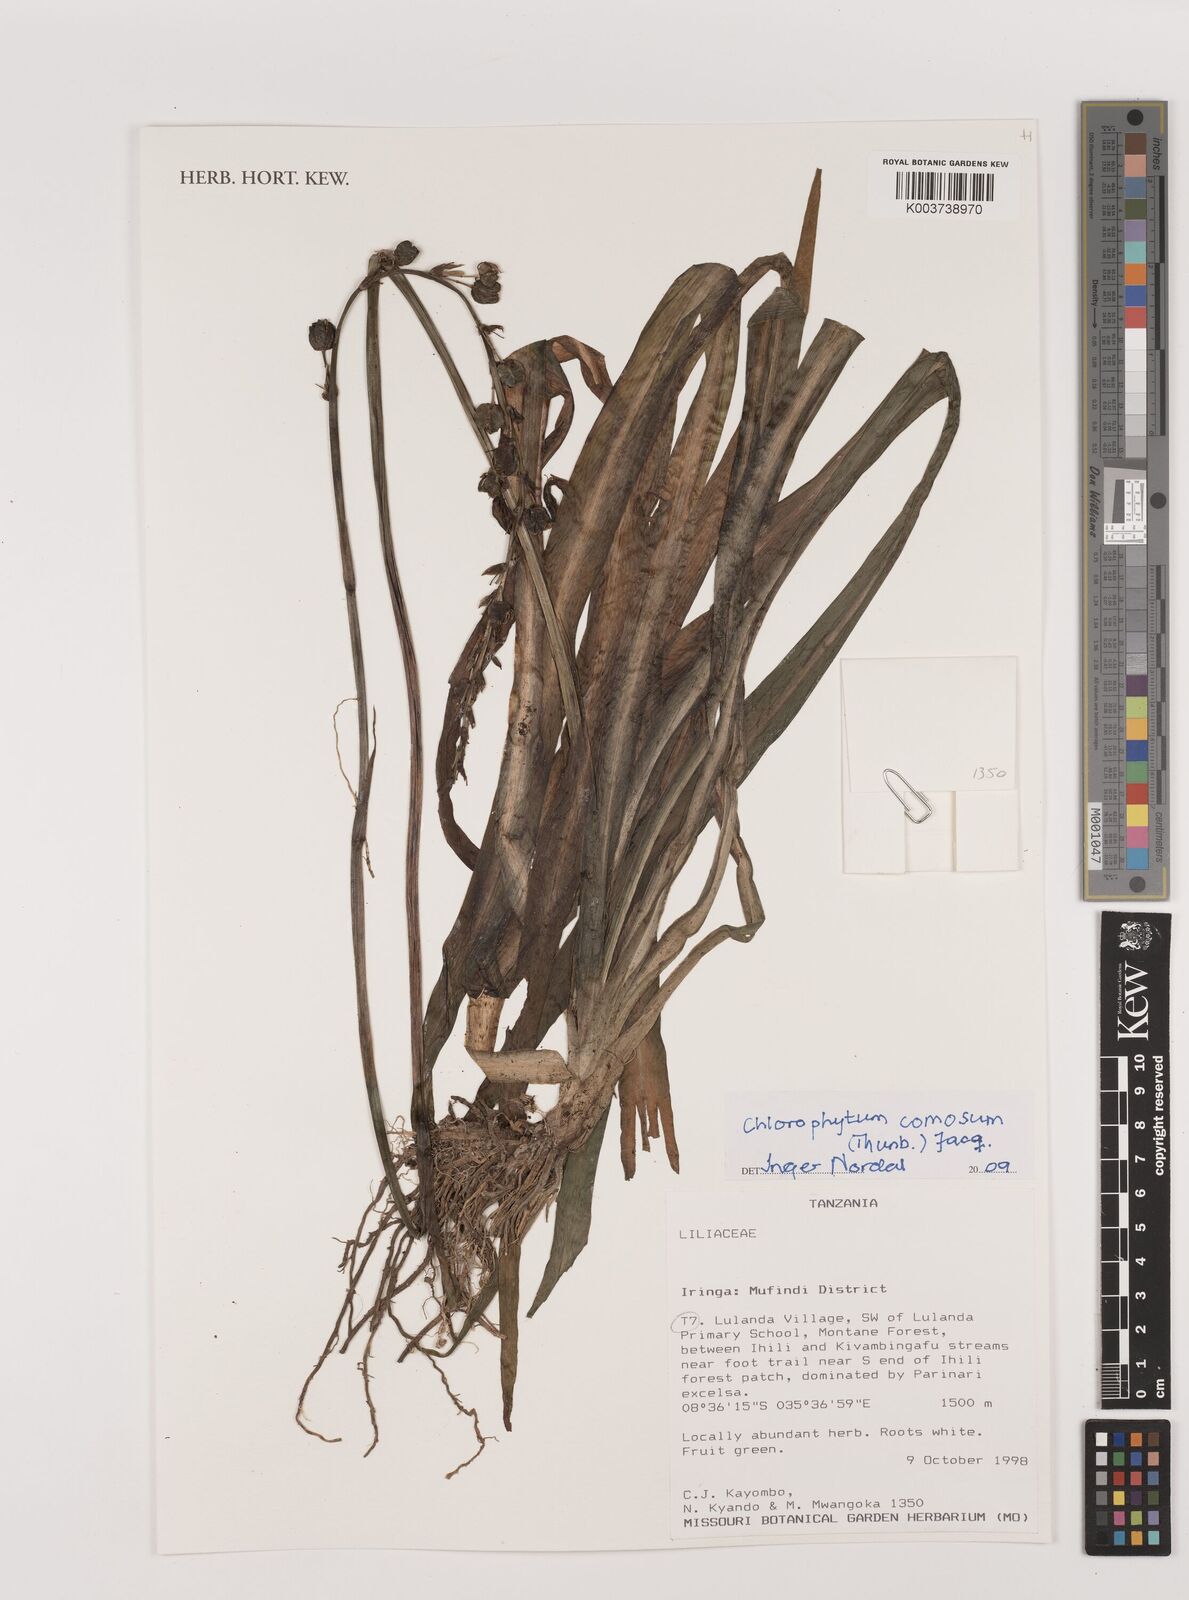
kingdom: Plantae
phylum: Tracheophyta
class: Liliopsida
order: Asparagales
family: Asparagaceae
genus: Chlorophytum
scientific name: Chlorophytum comosum
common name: Spider plant
